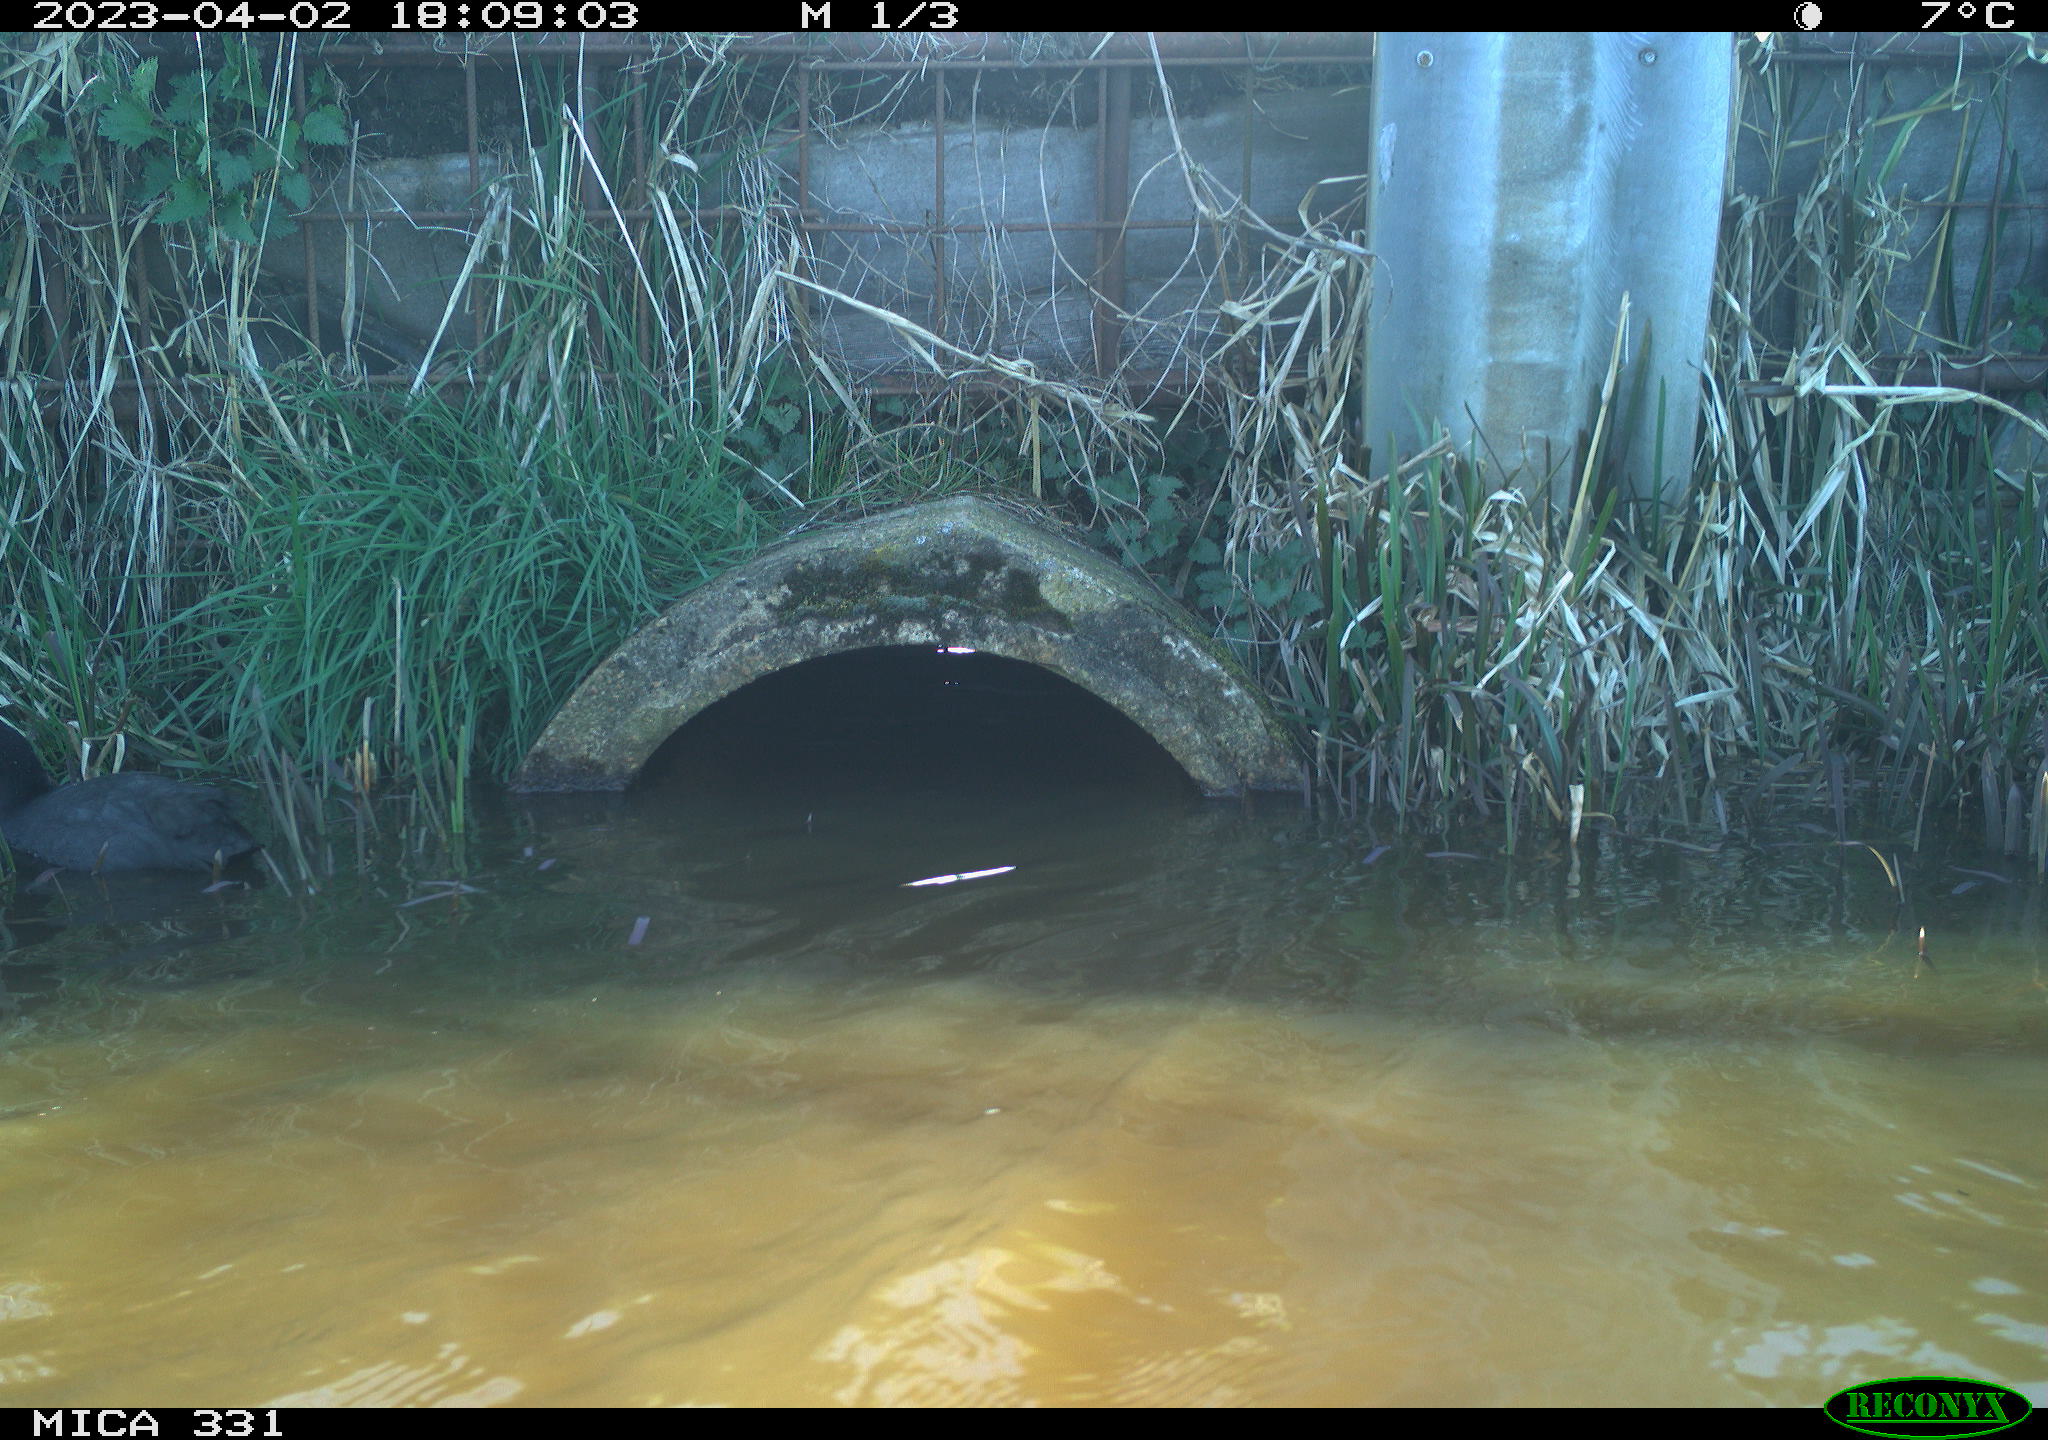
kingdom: Animalia
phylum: Chordata
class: Aves
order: Gruiformes
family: Rallidae
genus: Fulica
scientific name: Fulica atra
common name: Eurasian coot
